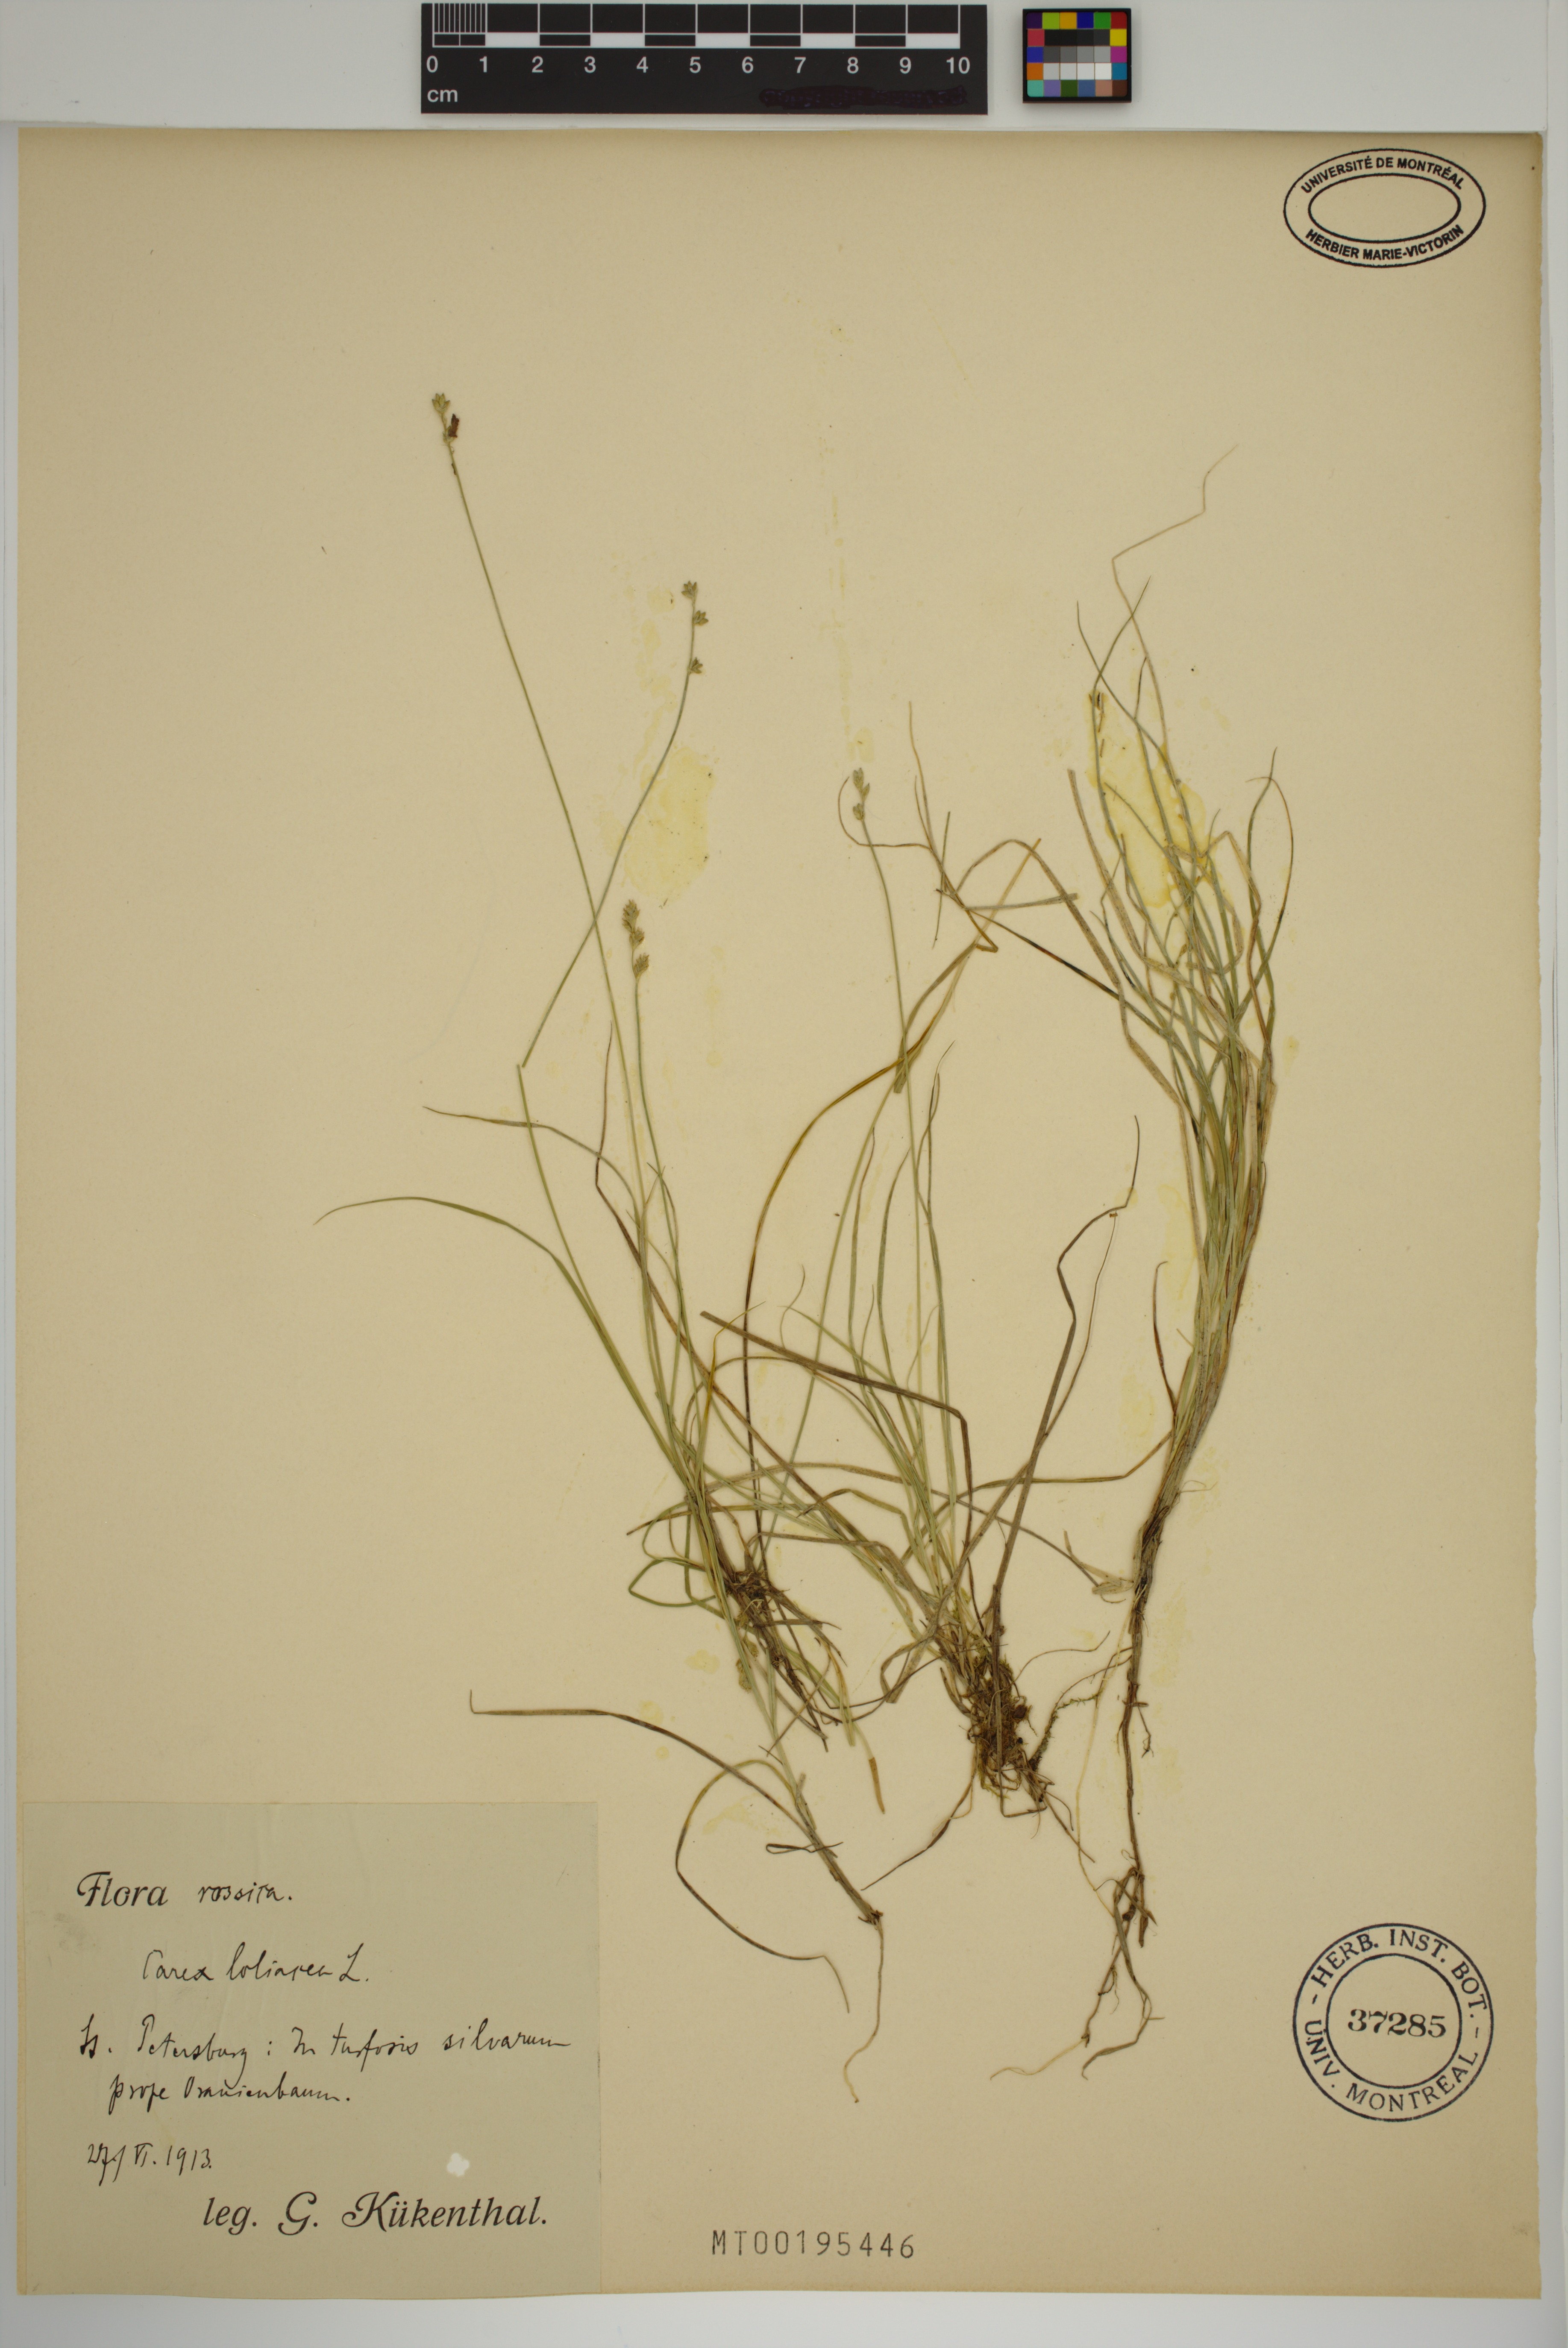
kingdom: Plantae
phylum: Tracheophyta
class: Liliopsida
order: Poales
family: Cyperaceae
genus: Carex
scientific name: Carex loliacea
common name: Ryegrass sedge
